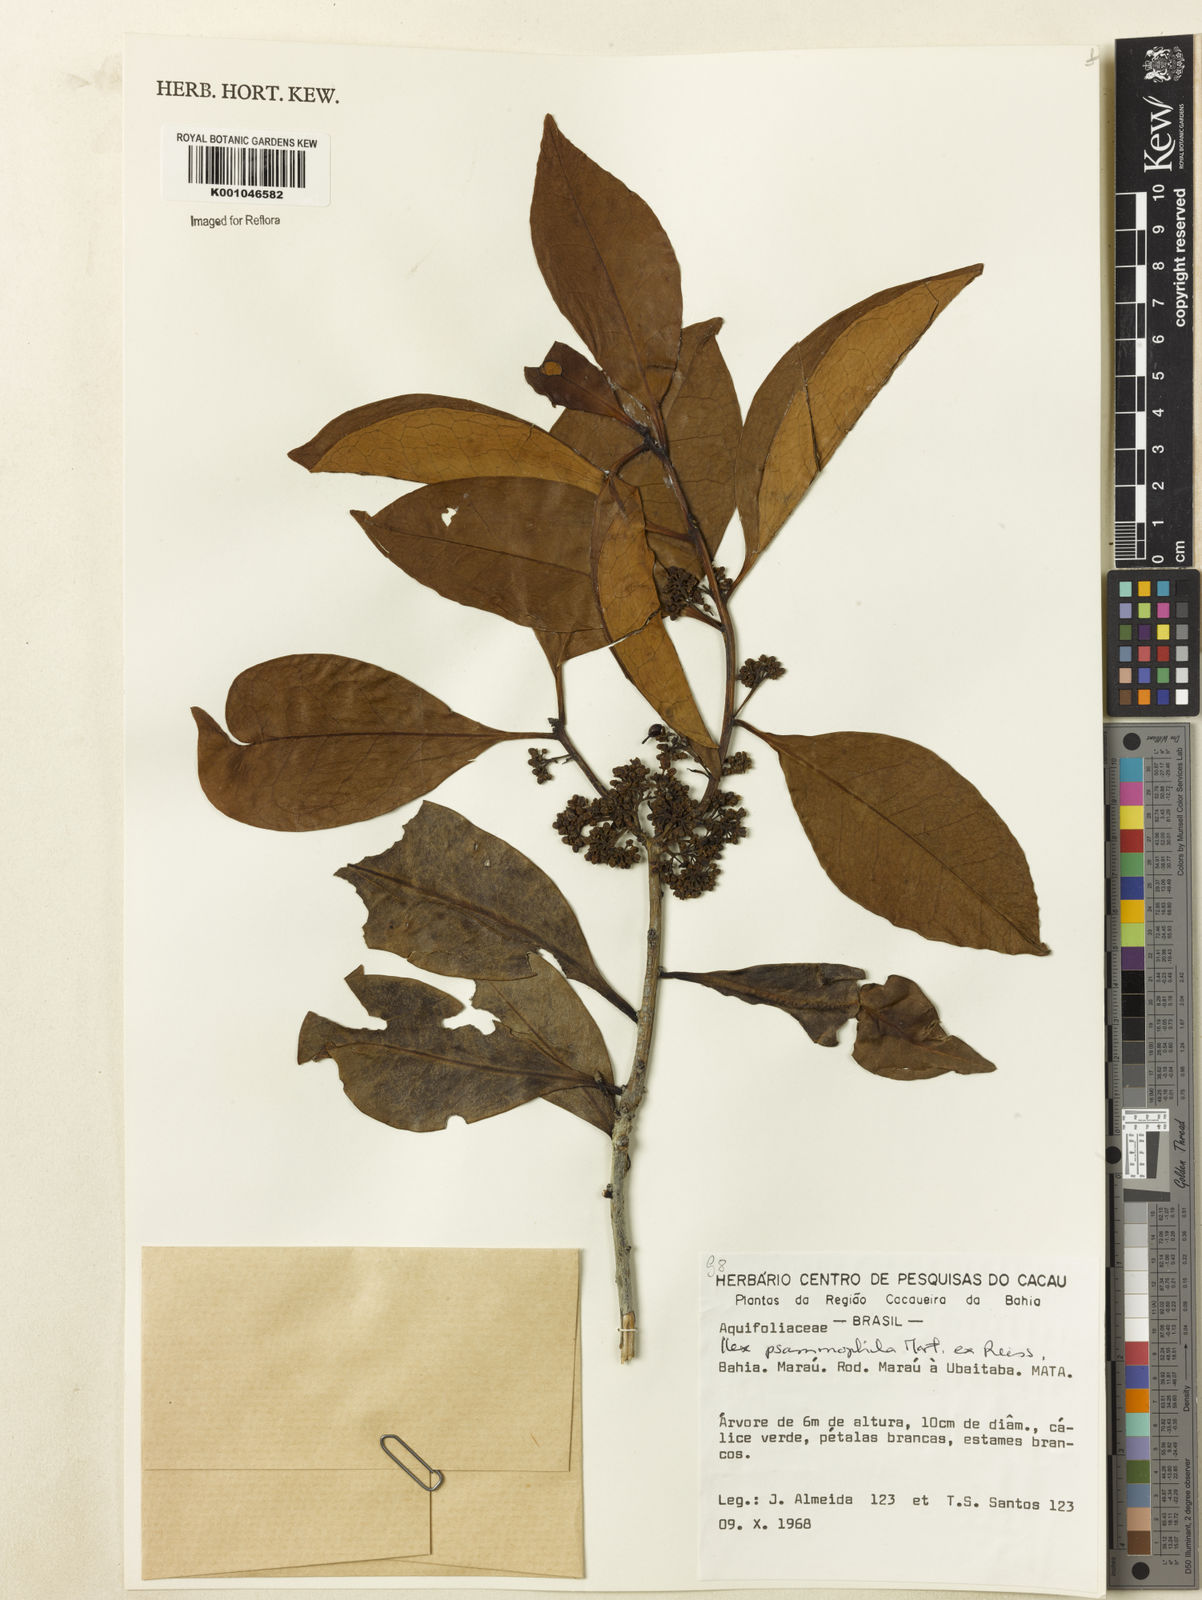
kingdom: Plantae
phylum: Tracheophyta
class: Magnoliopsida
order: Aquifoliales
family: Aquifoliaceae
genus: Ilex
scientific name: Ilex psammophila
